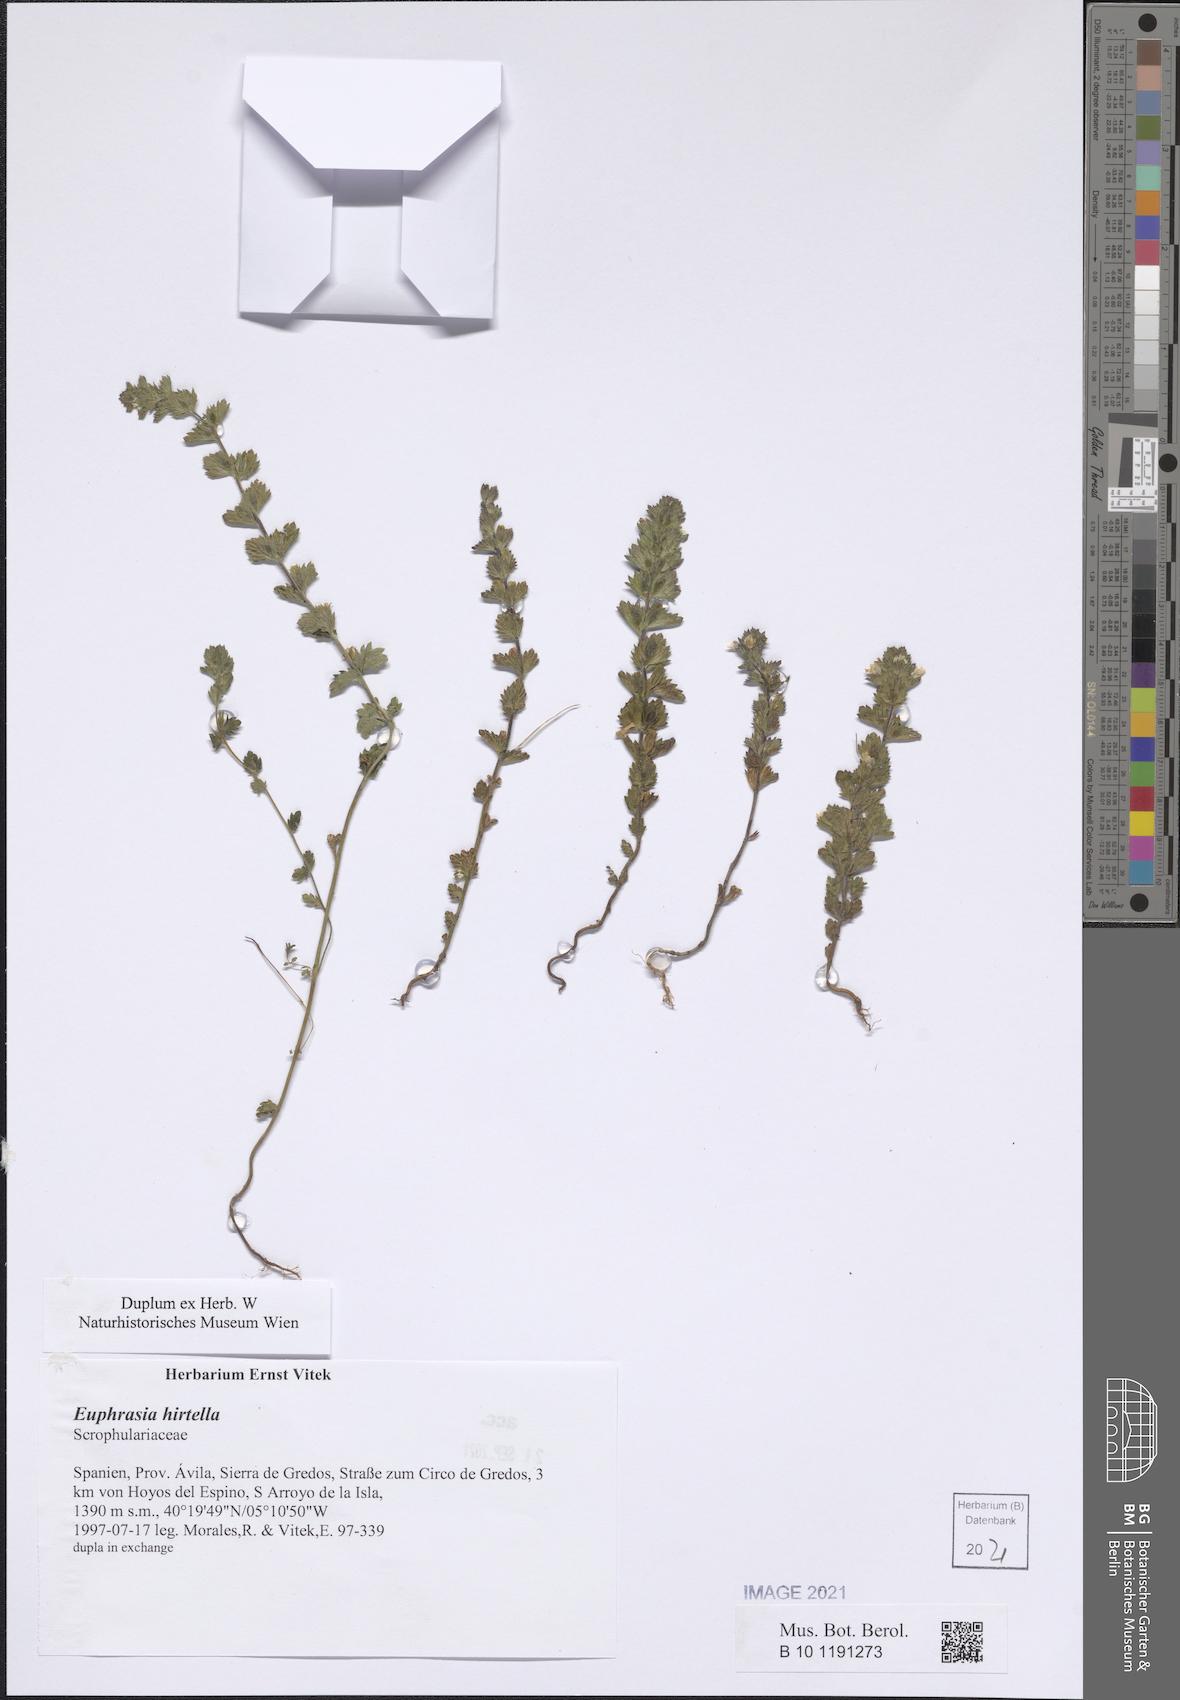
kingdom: Plantae
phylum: Tracheophyta
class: Magnoliopsida
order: Lamiales
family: Orobanchaceae
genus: Euphrasia
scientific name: Euphrasia hirtella
